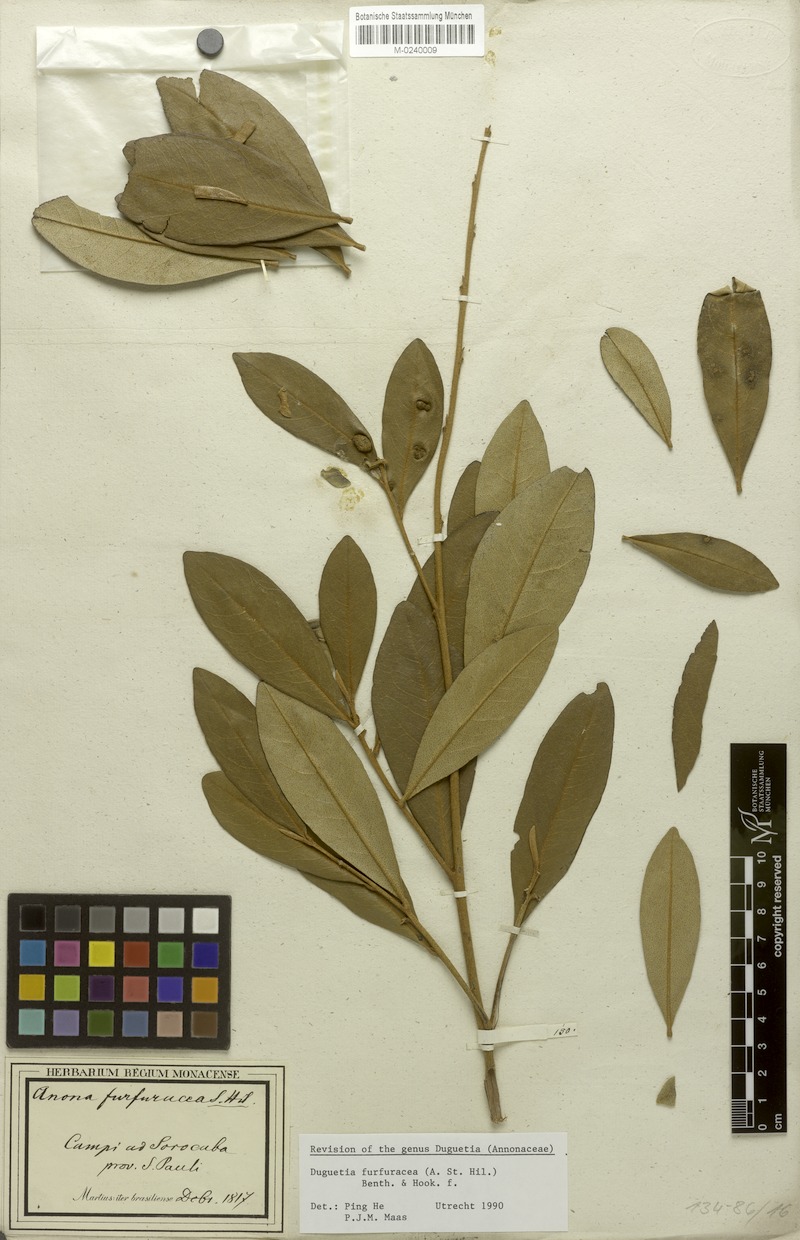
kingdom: Plantae
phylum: Tracheophyta
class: Magnoliopsida
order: Magnoliales
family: Annonaceae
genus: Duguetia
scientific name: Duguetia furfuracea
